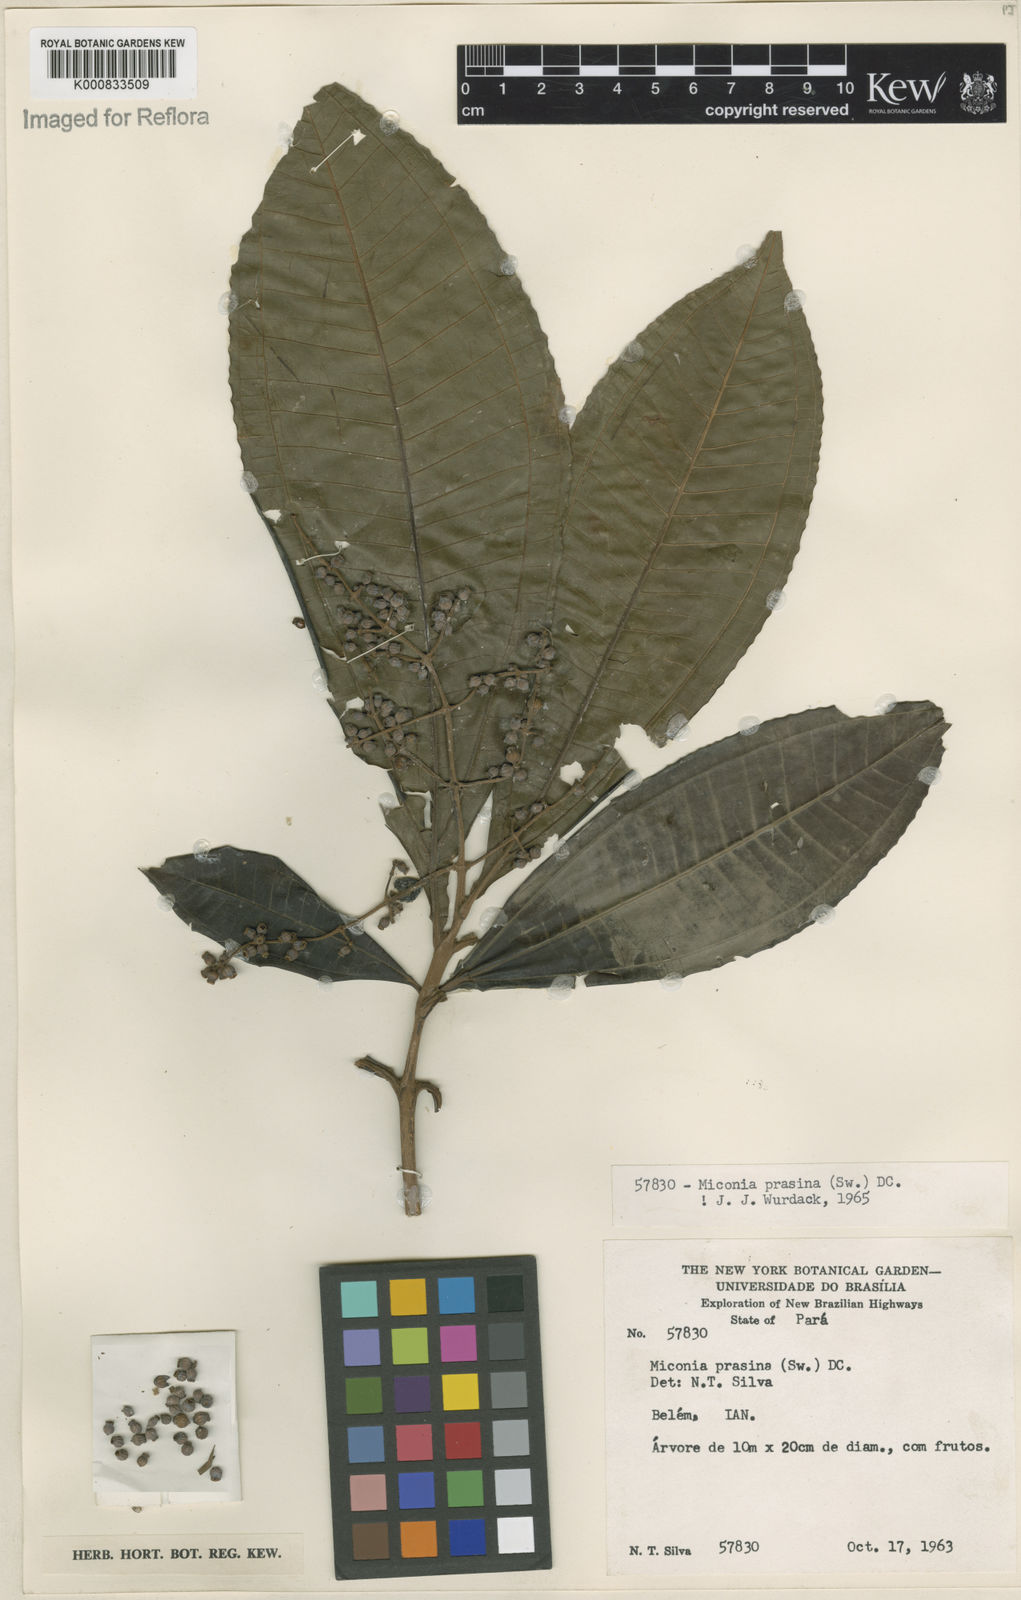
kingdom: Plantae
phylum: Tracheophyta
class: Magnoliopsida
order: Myrtales
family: Melastomataceae
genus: Miconia
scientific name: Miconia prasina
